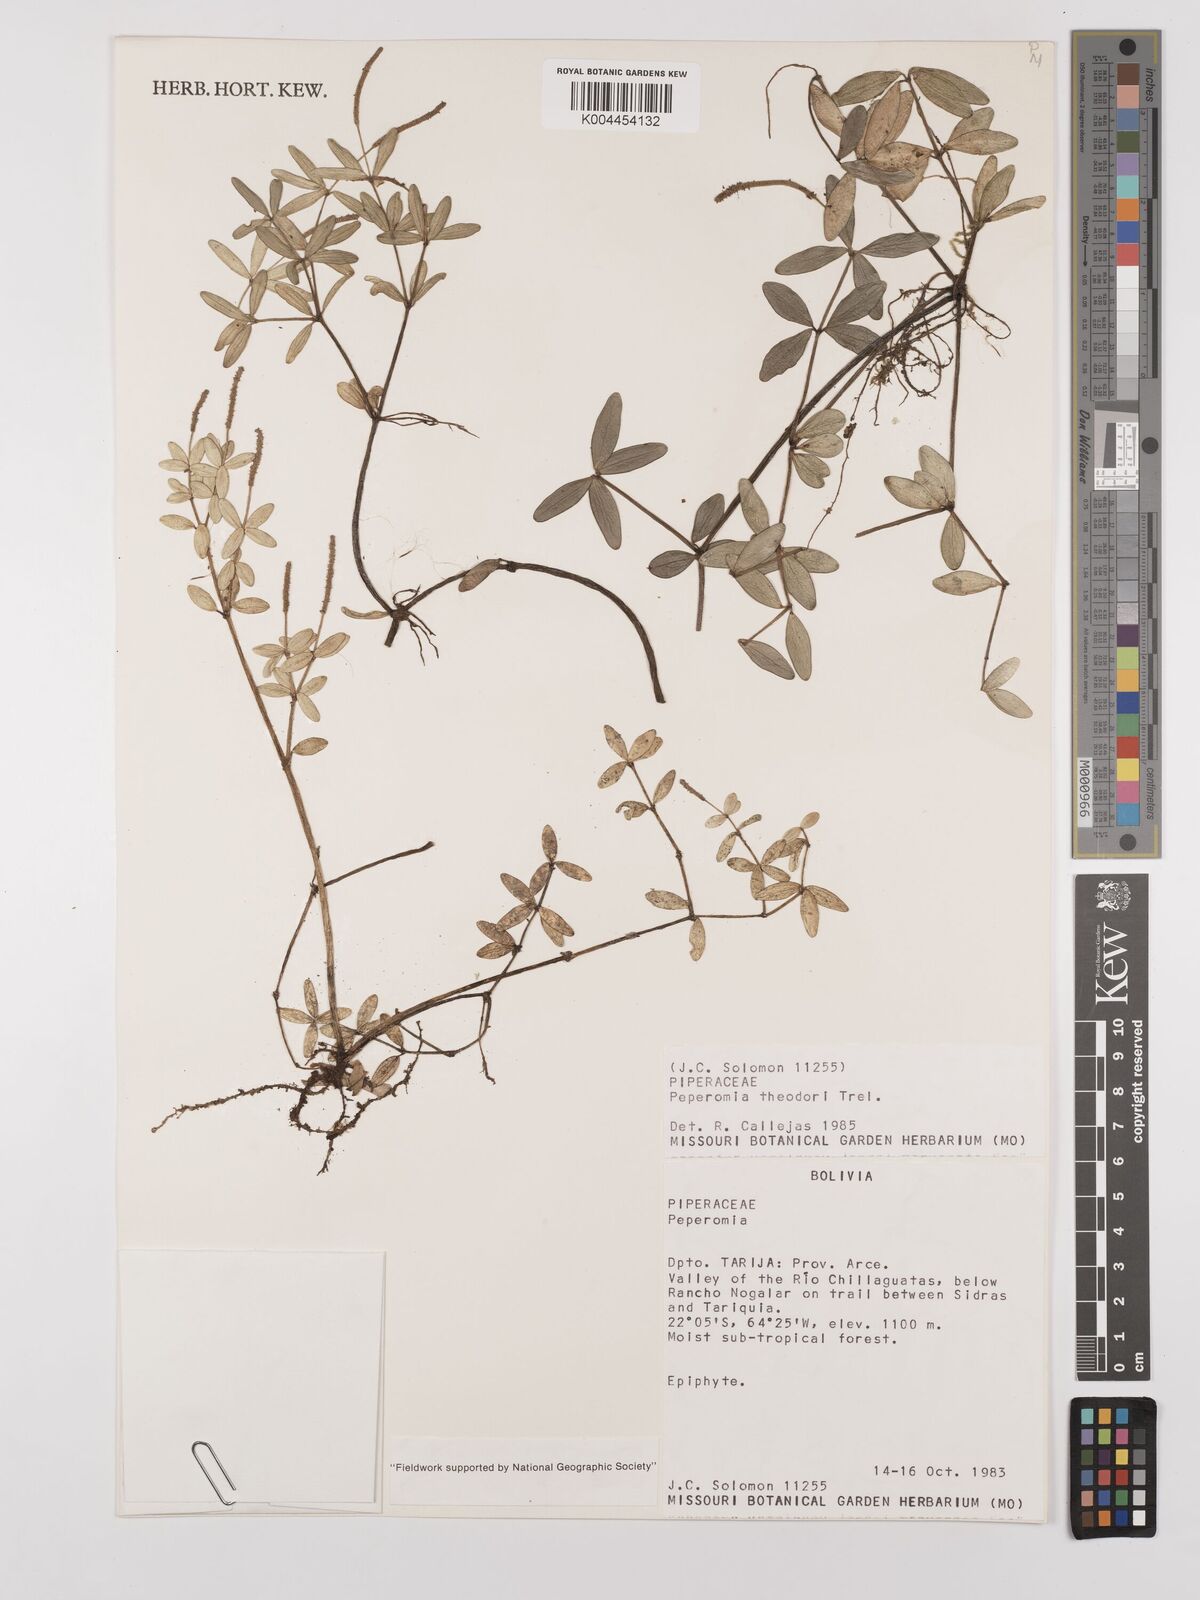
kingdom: Plantae
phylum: Tracheophyta
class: Magnoliopsida
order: Piperales
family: Piperaceae
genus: Peperomia
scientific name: Peperomia theodori
